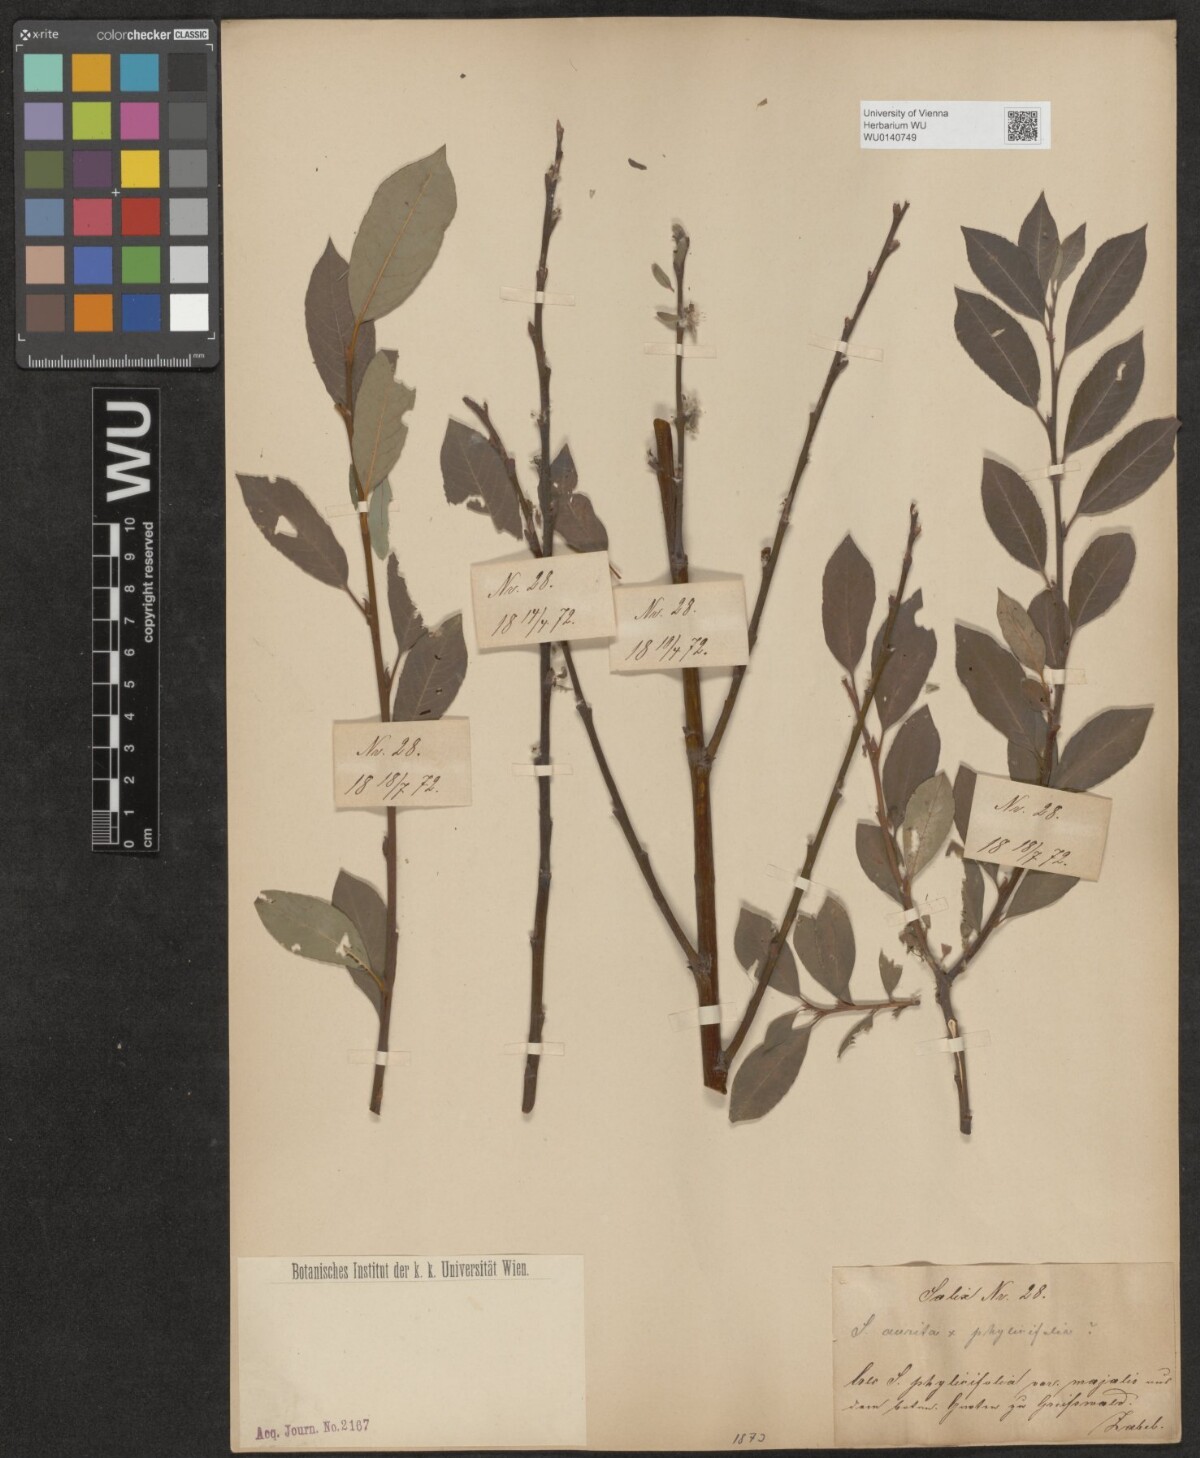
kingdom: Plantae
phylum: Tracheophyta
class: Magnoliopsida
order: Malpighiales
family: Salicaceae
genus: Salix
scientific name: Salix
